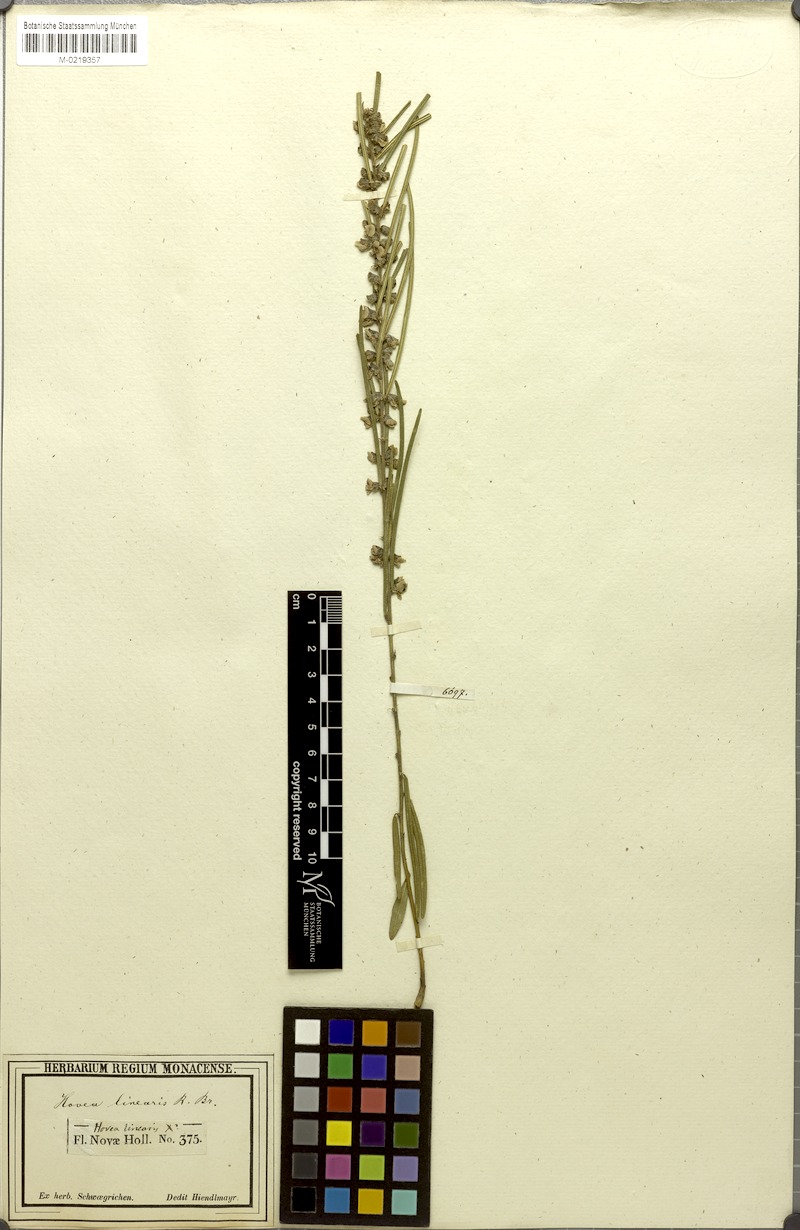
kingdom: Plantae
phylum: Tracheophyta
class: Magnoliopsida
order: Fabales
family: Fabaceae
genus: Hovea
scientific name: Hovea linearis
